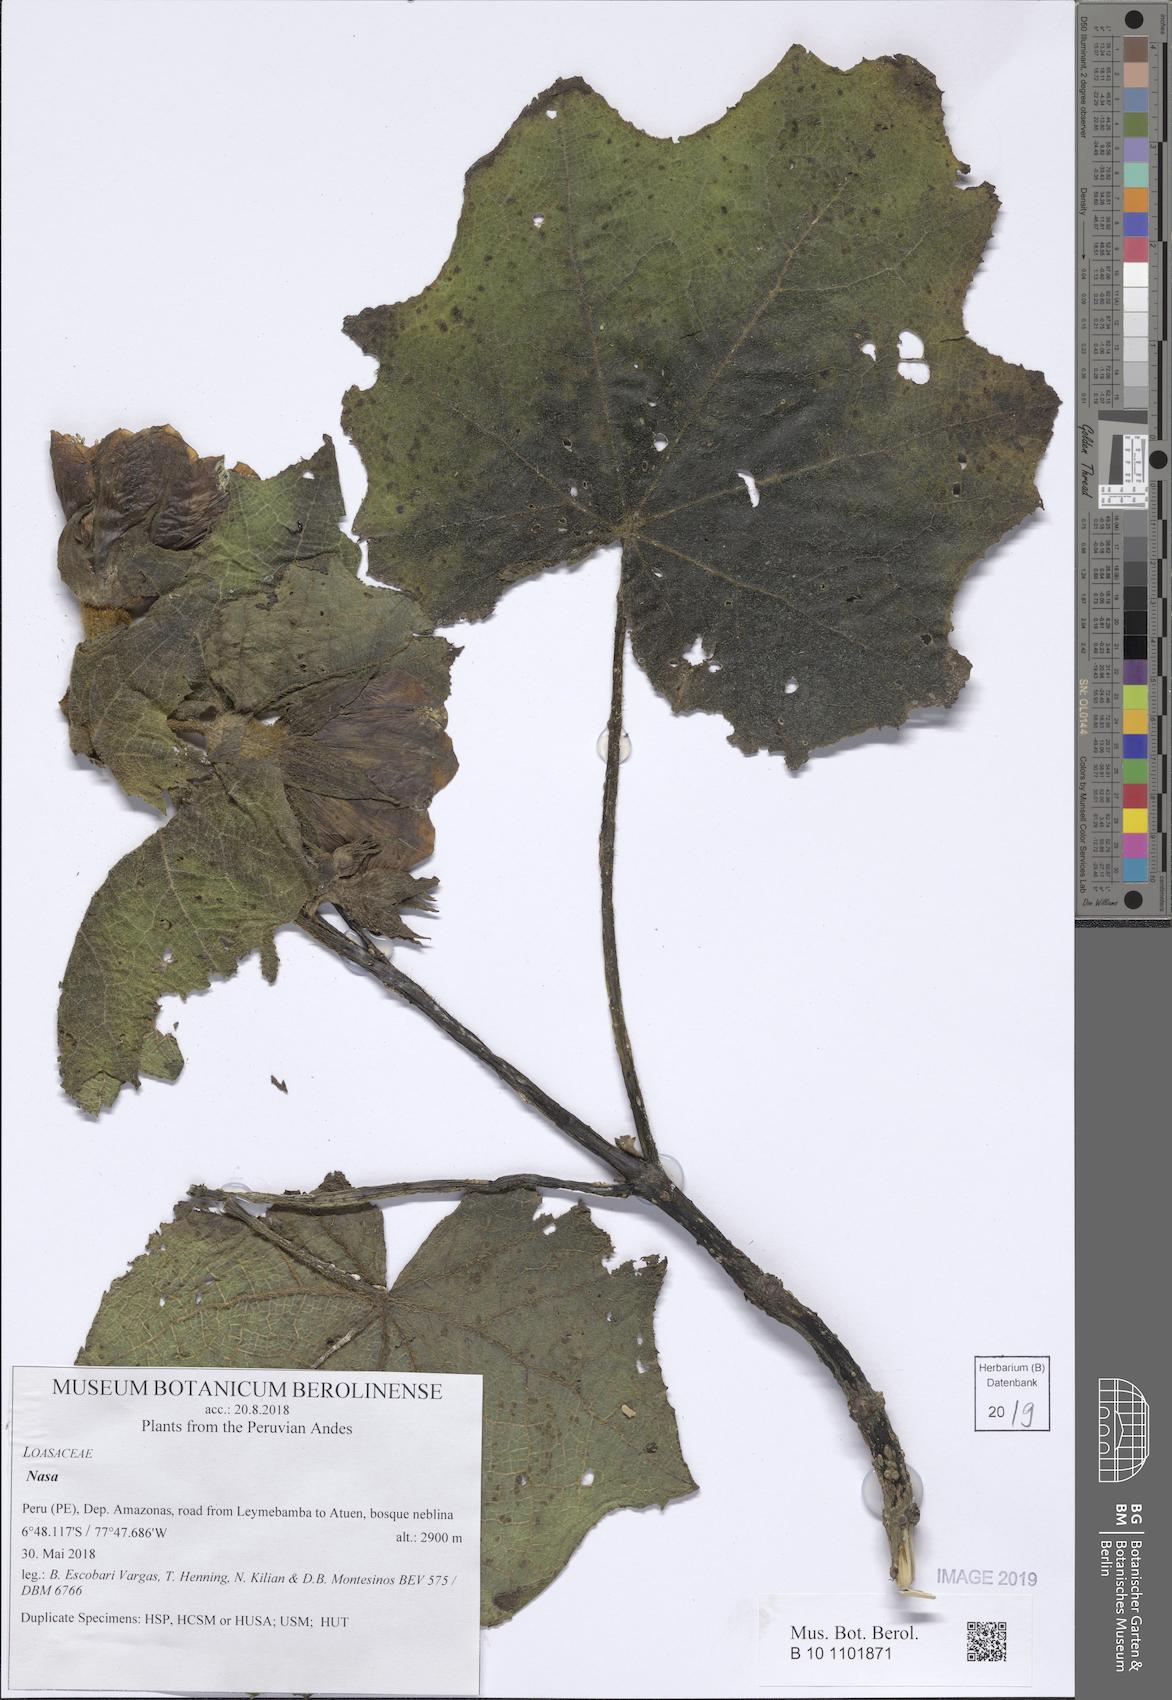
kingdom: Plantae
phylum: Tracheophyta
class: Magnoliopsida
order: Cornales
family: Loasaceae
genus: Nasa
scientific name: Nasa callacallensis
